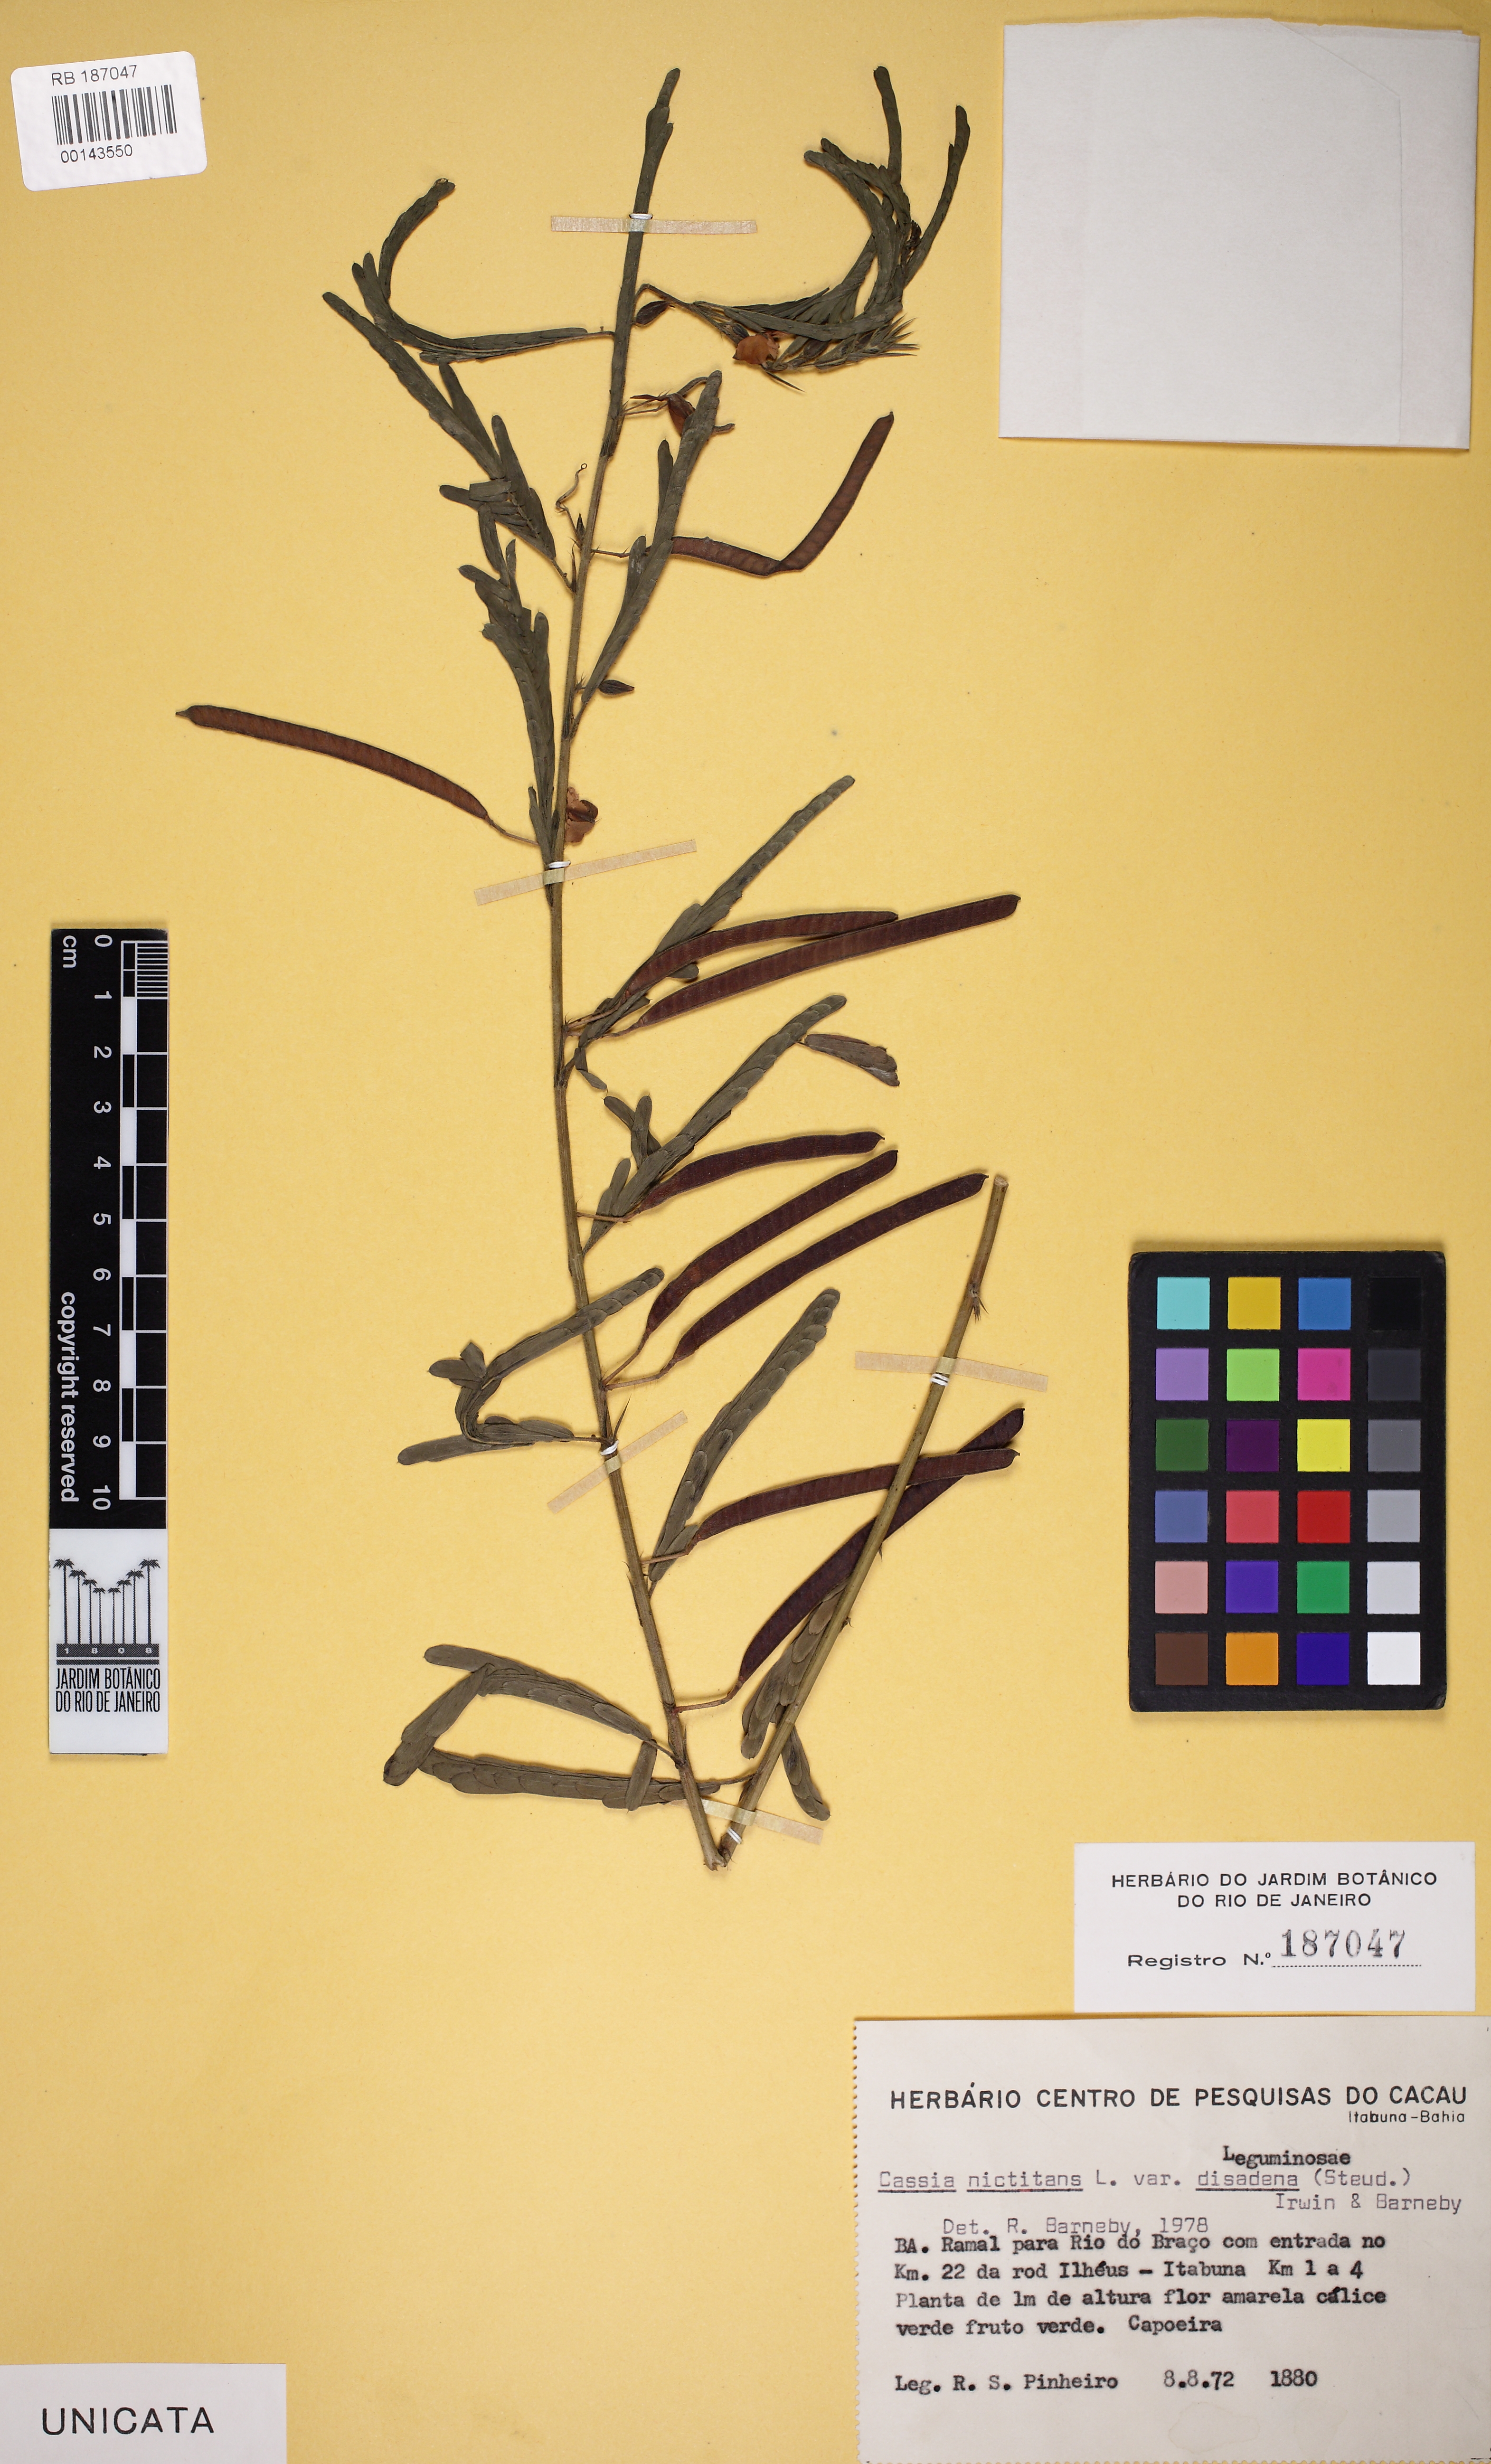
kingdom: Plantae
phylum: Tracheophyta
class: Magnoliopsida
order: Fabales
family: Fabaceae
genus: Chamaecrista
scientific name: Chamaecrista nictitans
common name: Sensitive cassia
